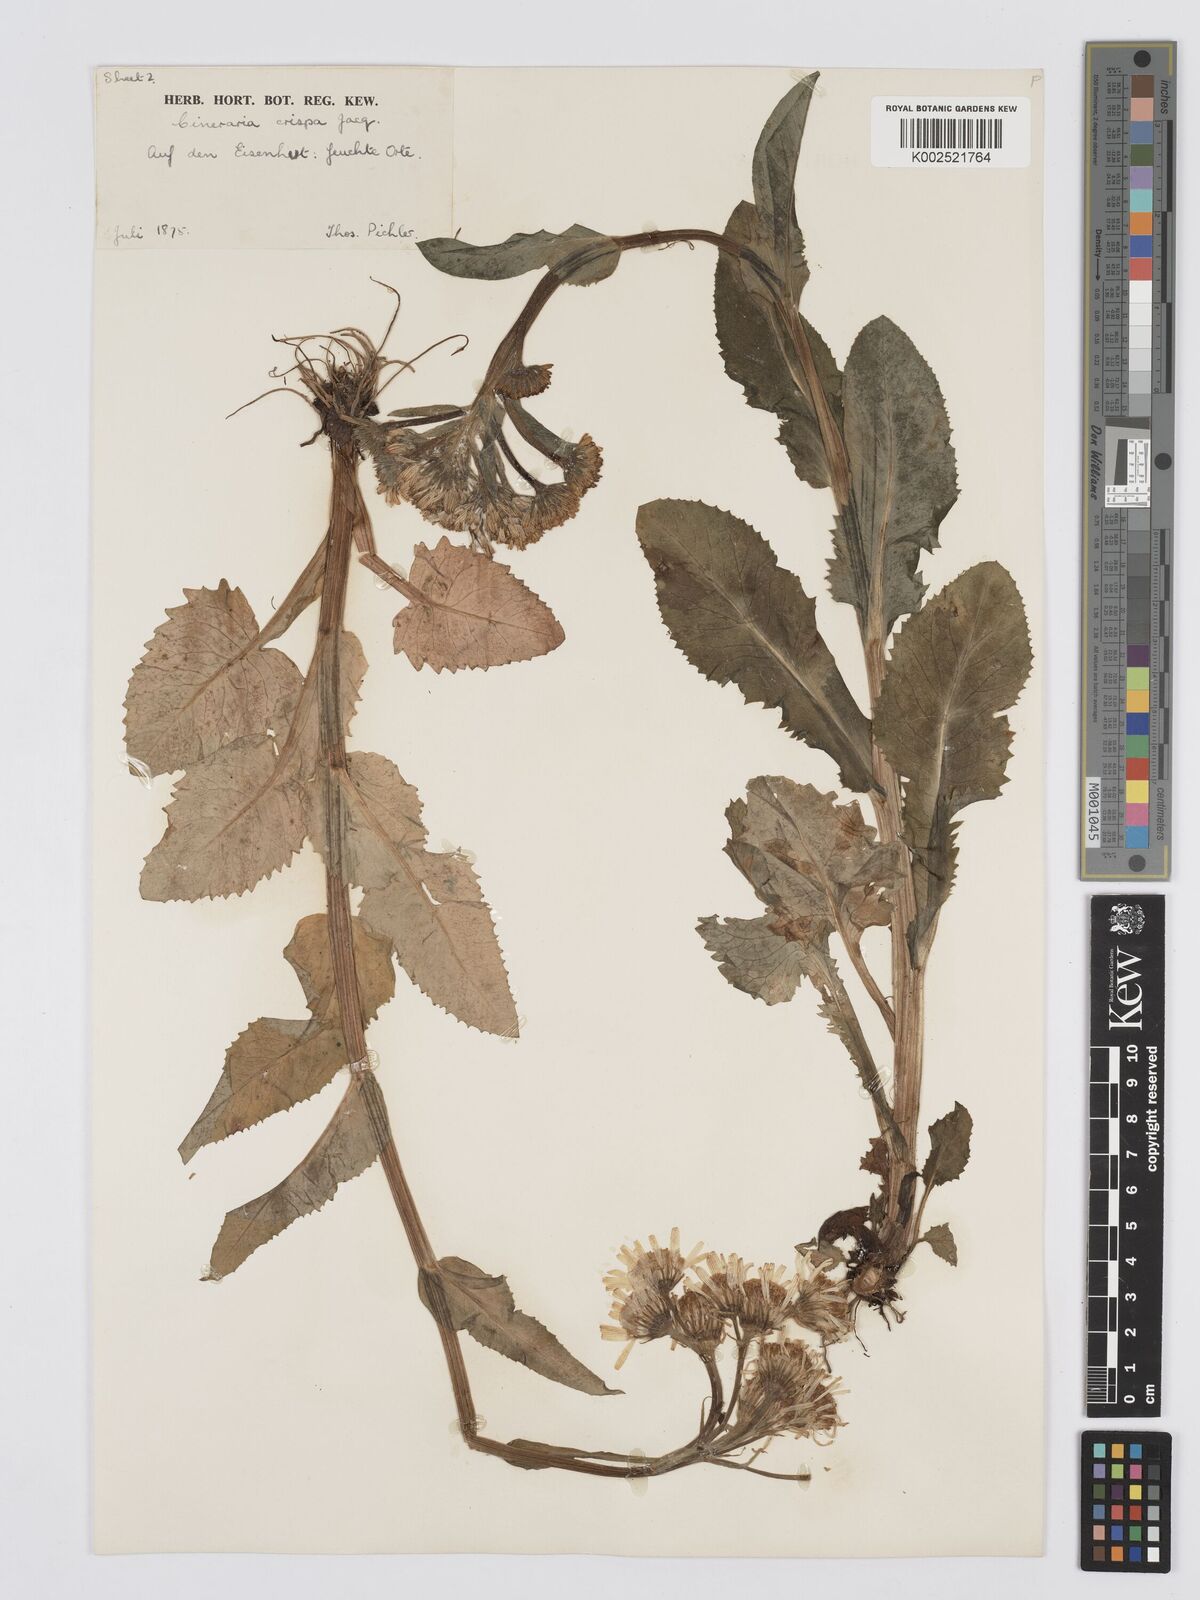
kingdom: Plantae
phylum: Tracheophyta
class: Magnoliopsida
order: Asterales
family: Asteraceae
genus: Tephroseris
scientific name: Tephroseris crispa
